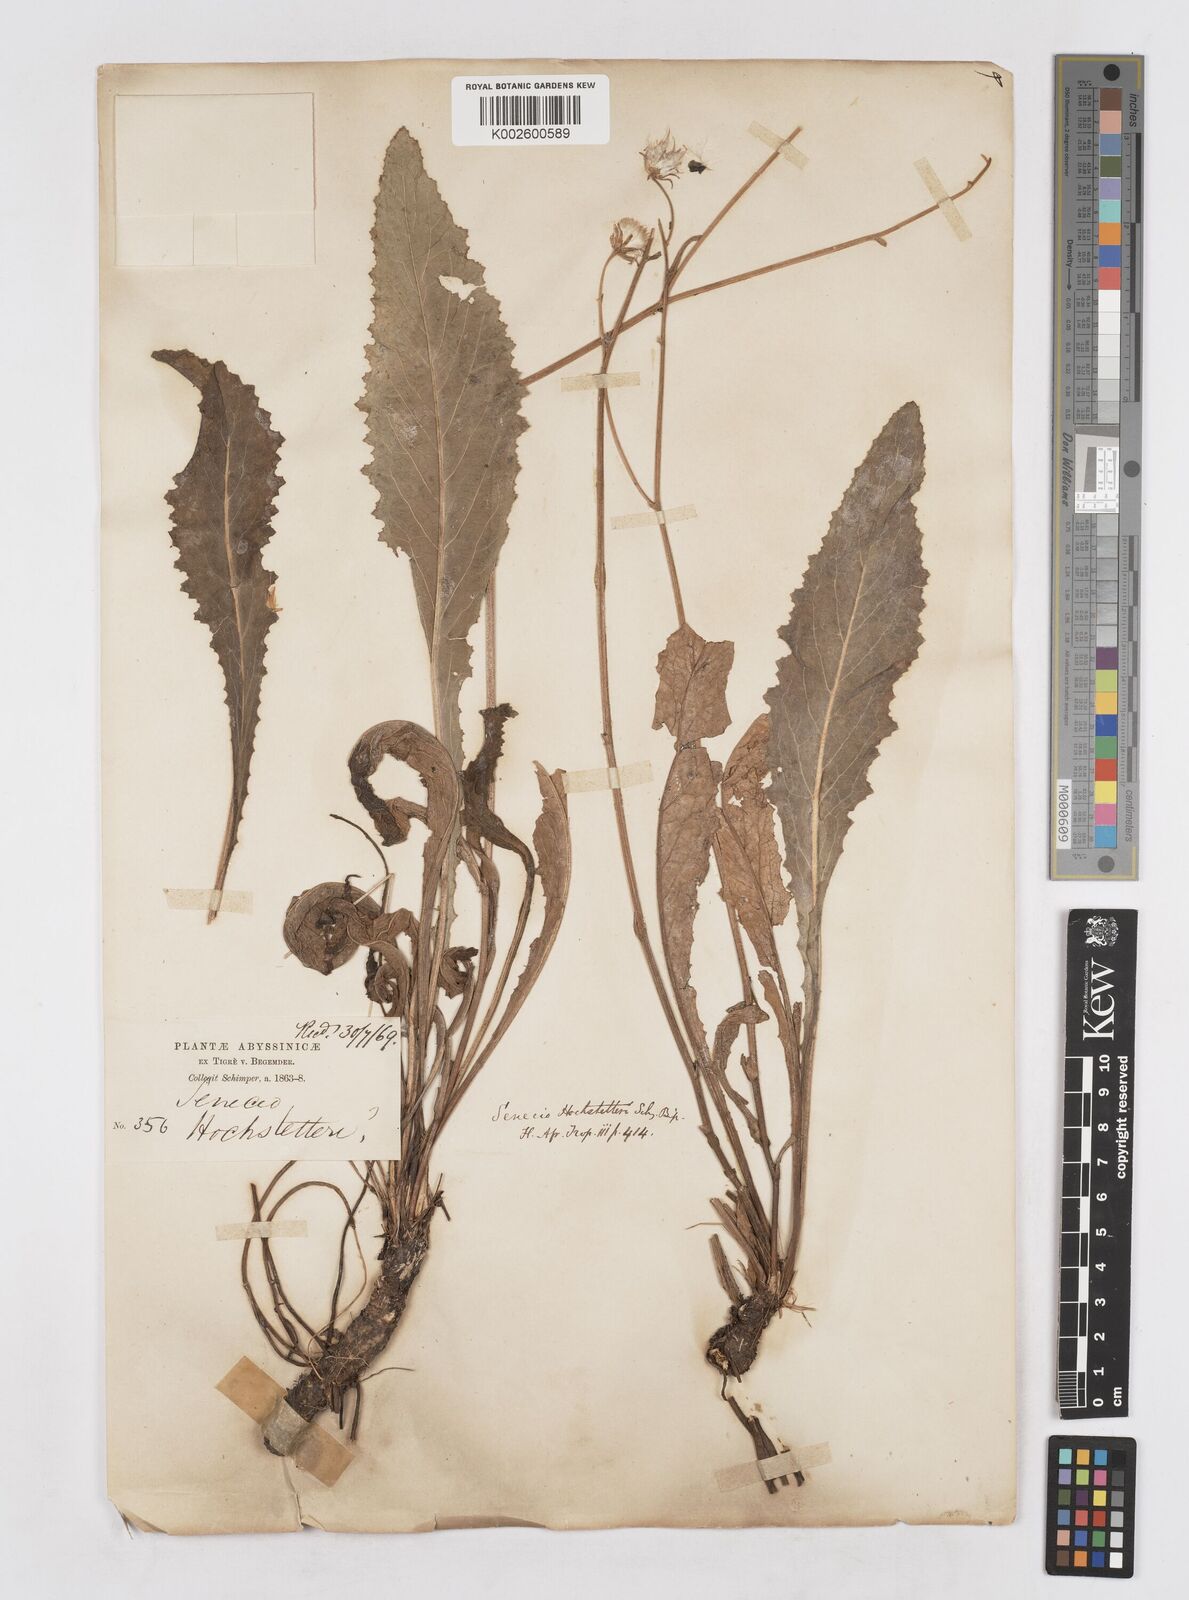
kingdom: Plantae
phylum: Tracheophyta
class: Magnoliopsida
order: Asterales
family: Asteraceae
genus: Senecio
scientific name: Senecio hochstetteri
